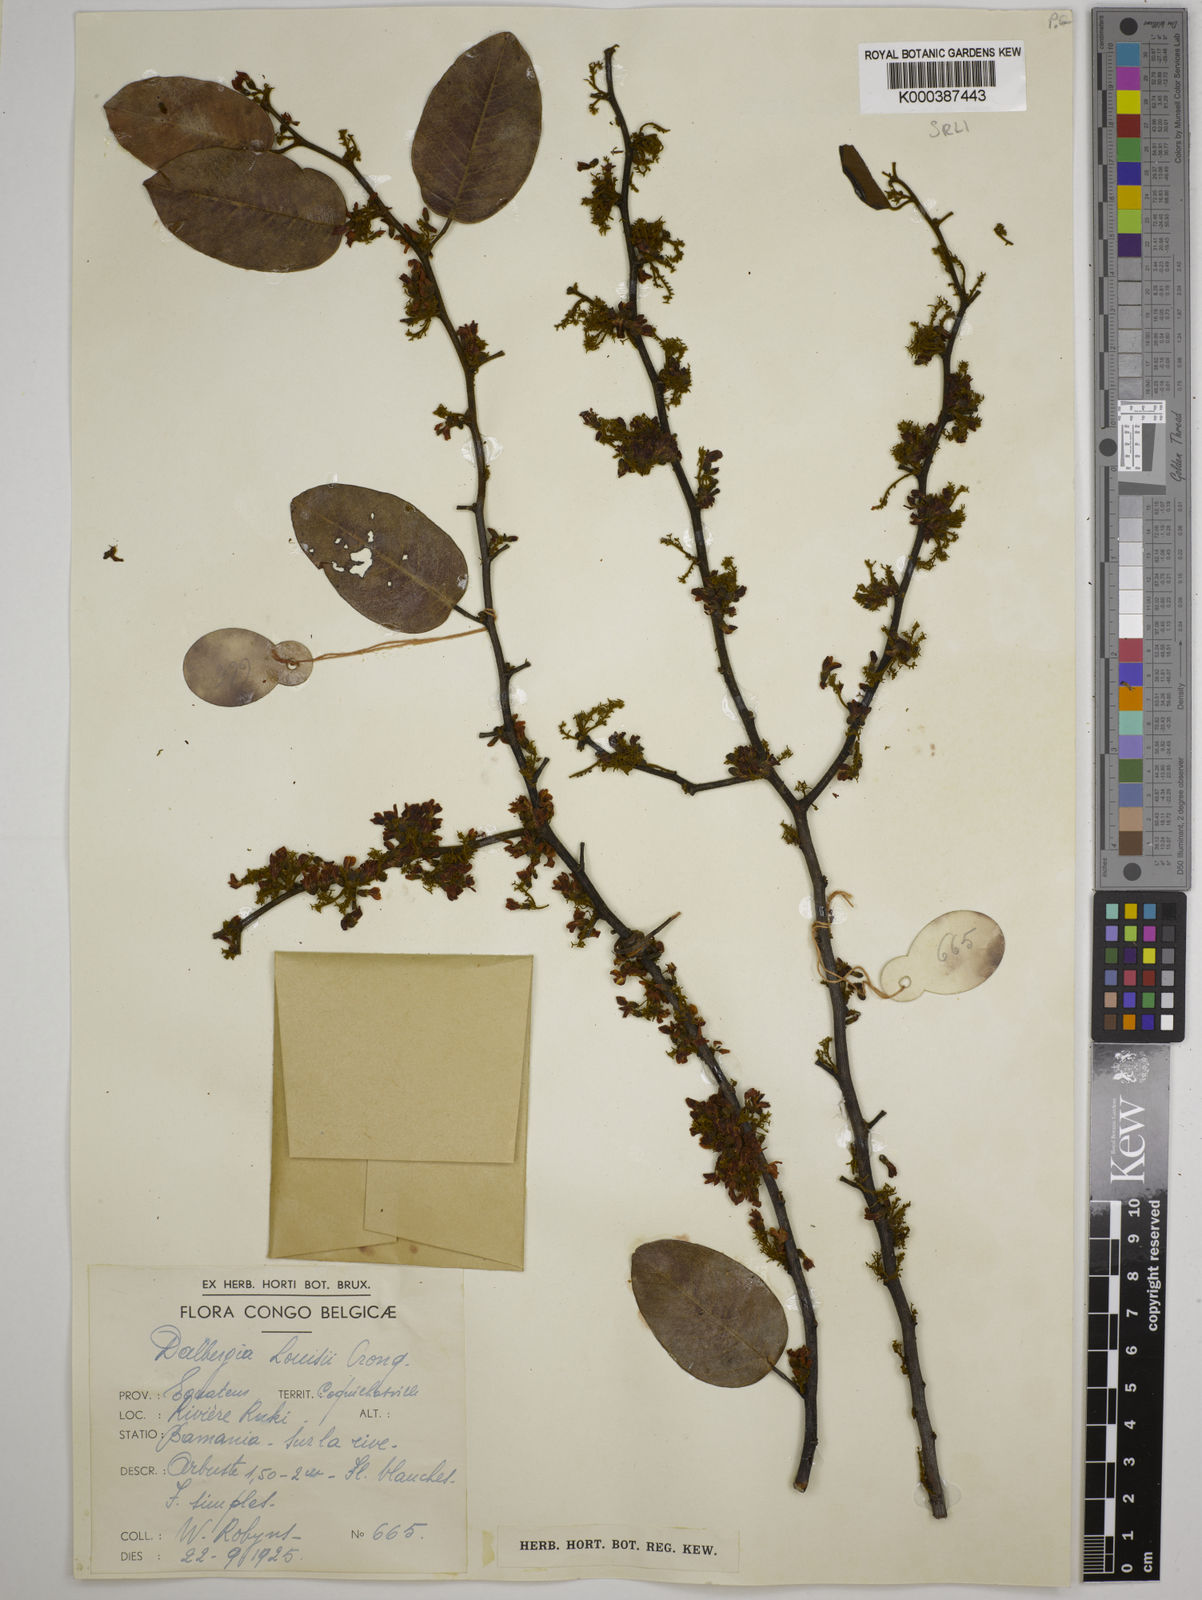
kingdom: Plantae
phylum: Tracheophyta
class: Magnoliopsida
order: Fabales
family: Fabaceae
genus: Dalbergia
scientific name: Dalbergia louisii
